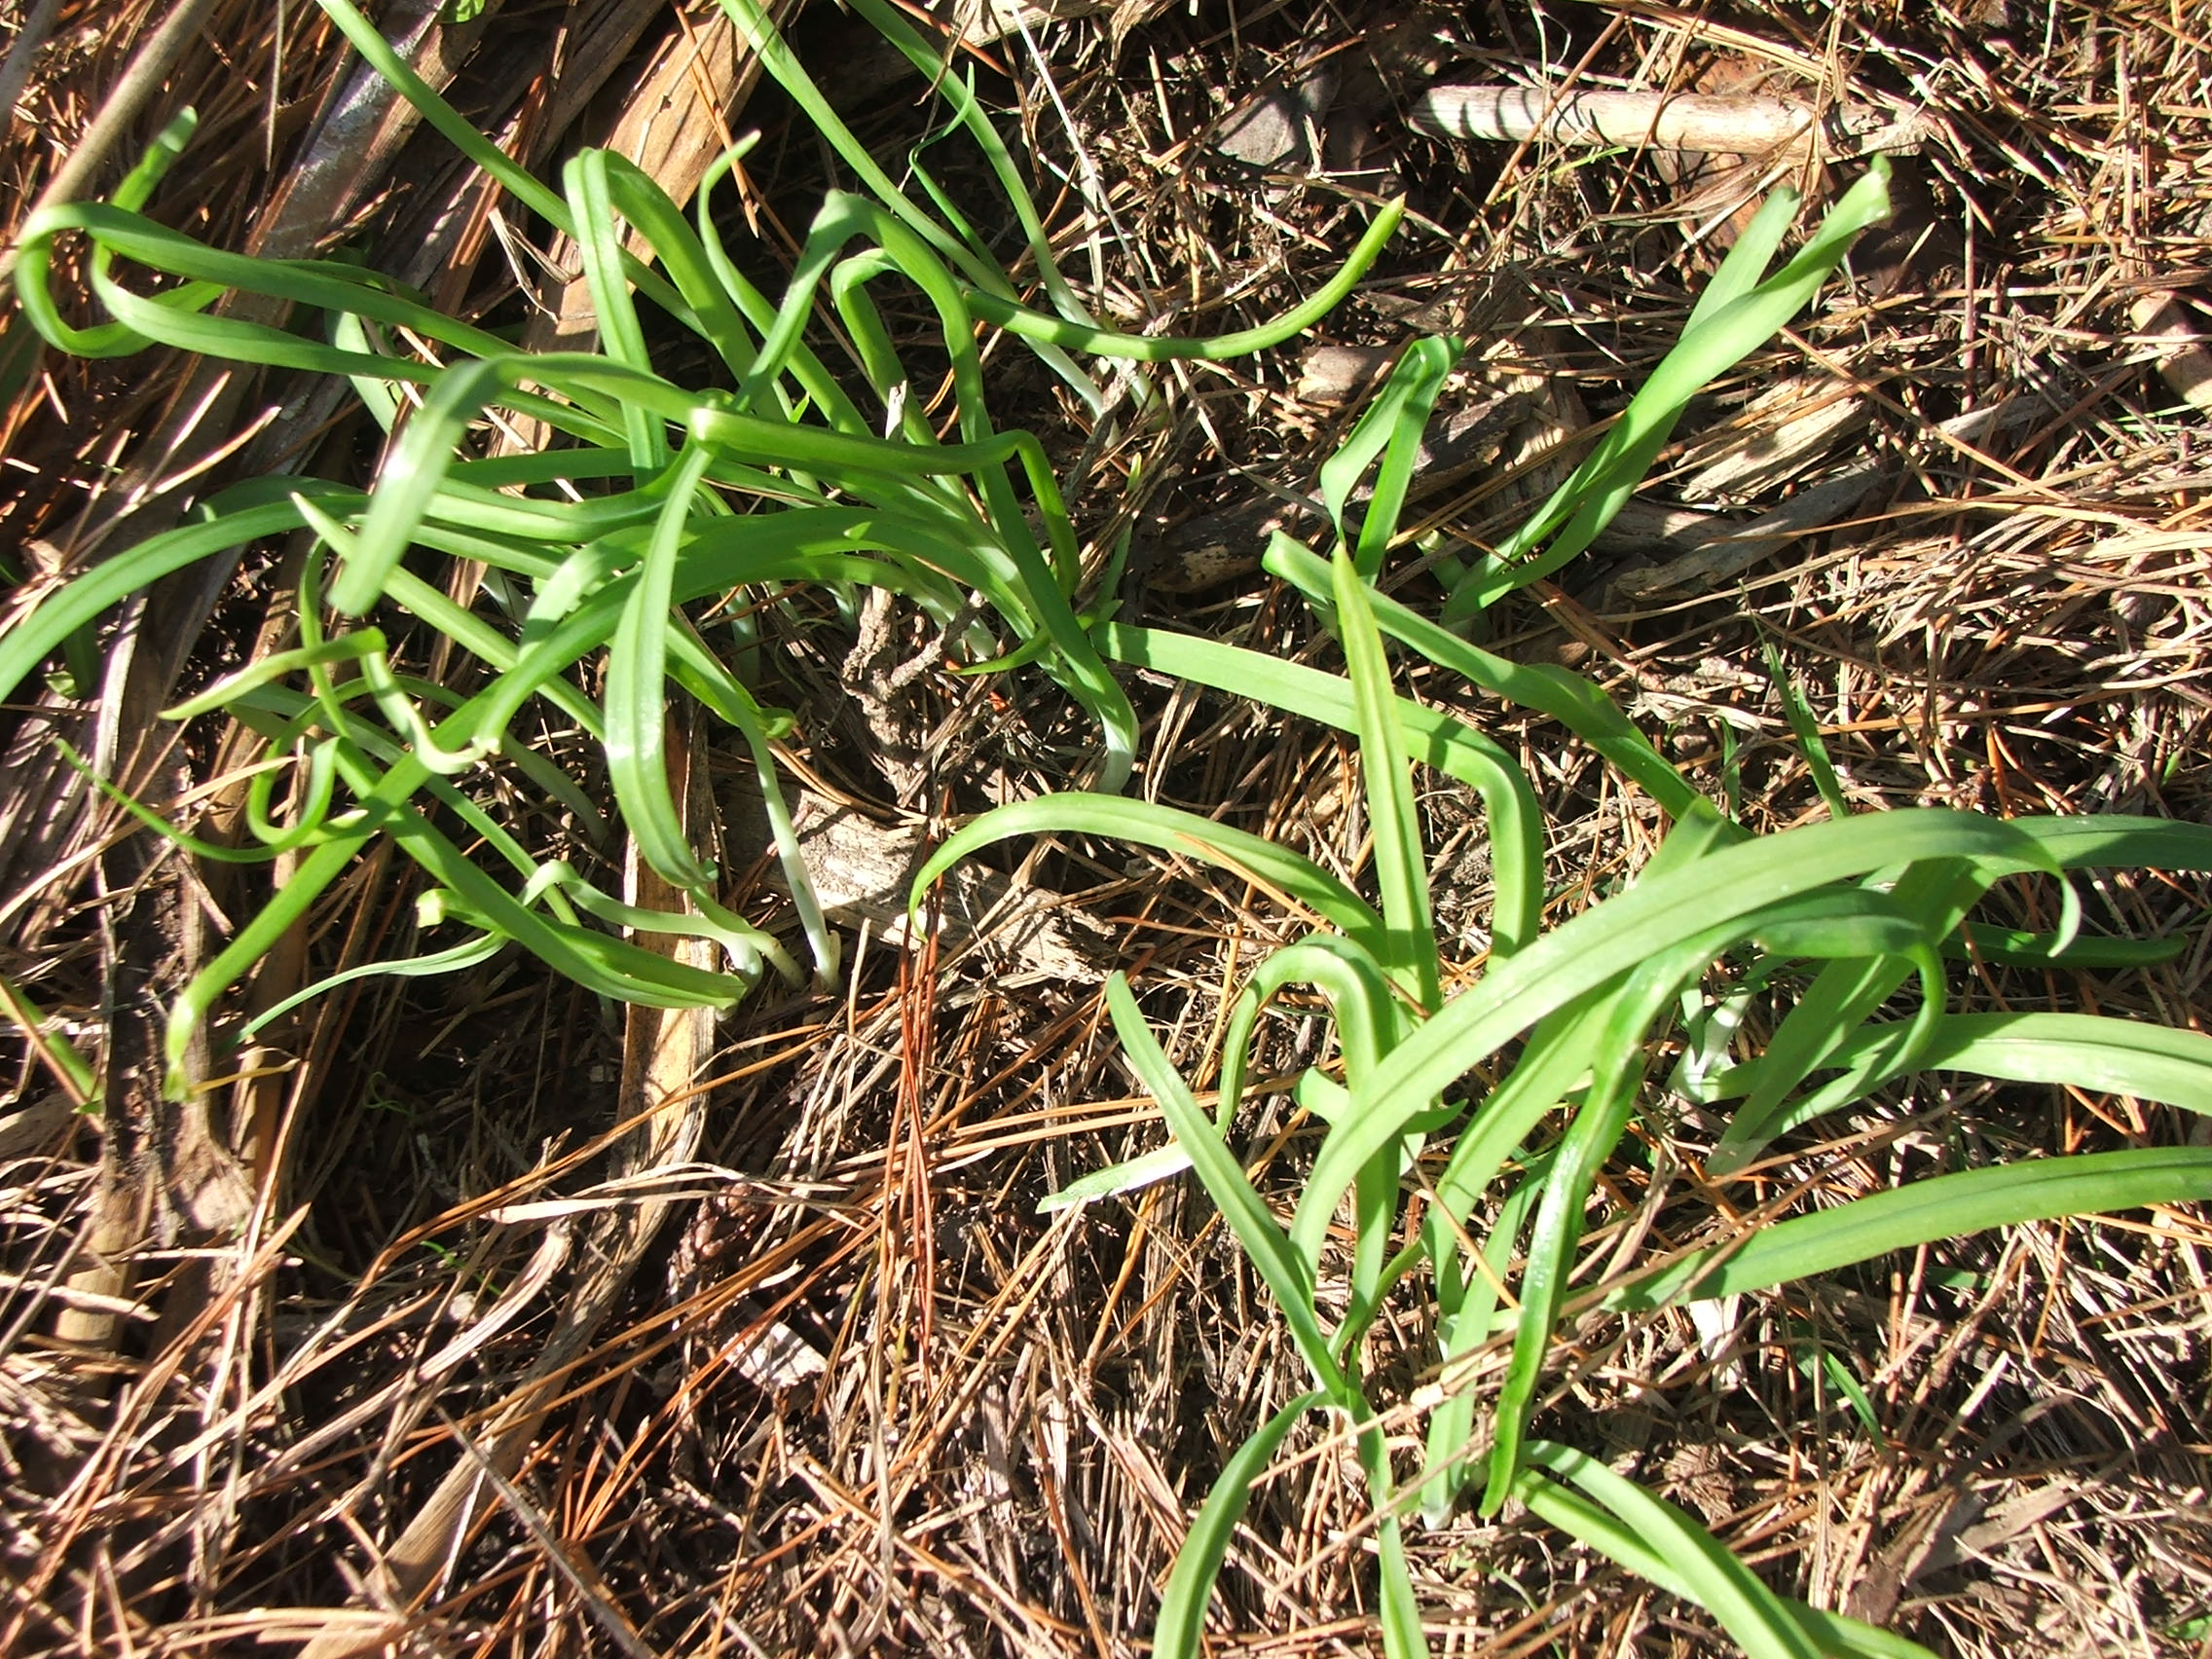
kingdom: Plantae
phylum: Tracheophyta
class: Liliopsida
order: Asparagales
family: Amaryllidaceae
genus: Allium
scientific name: Allium triquetrum
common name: Three-cornered garlic
